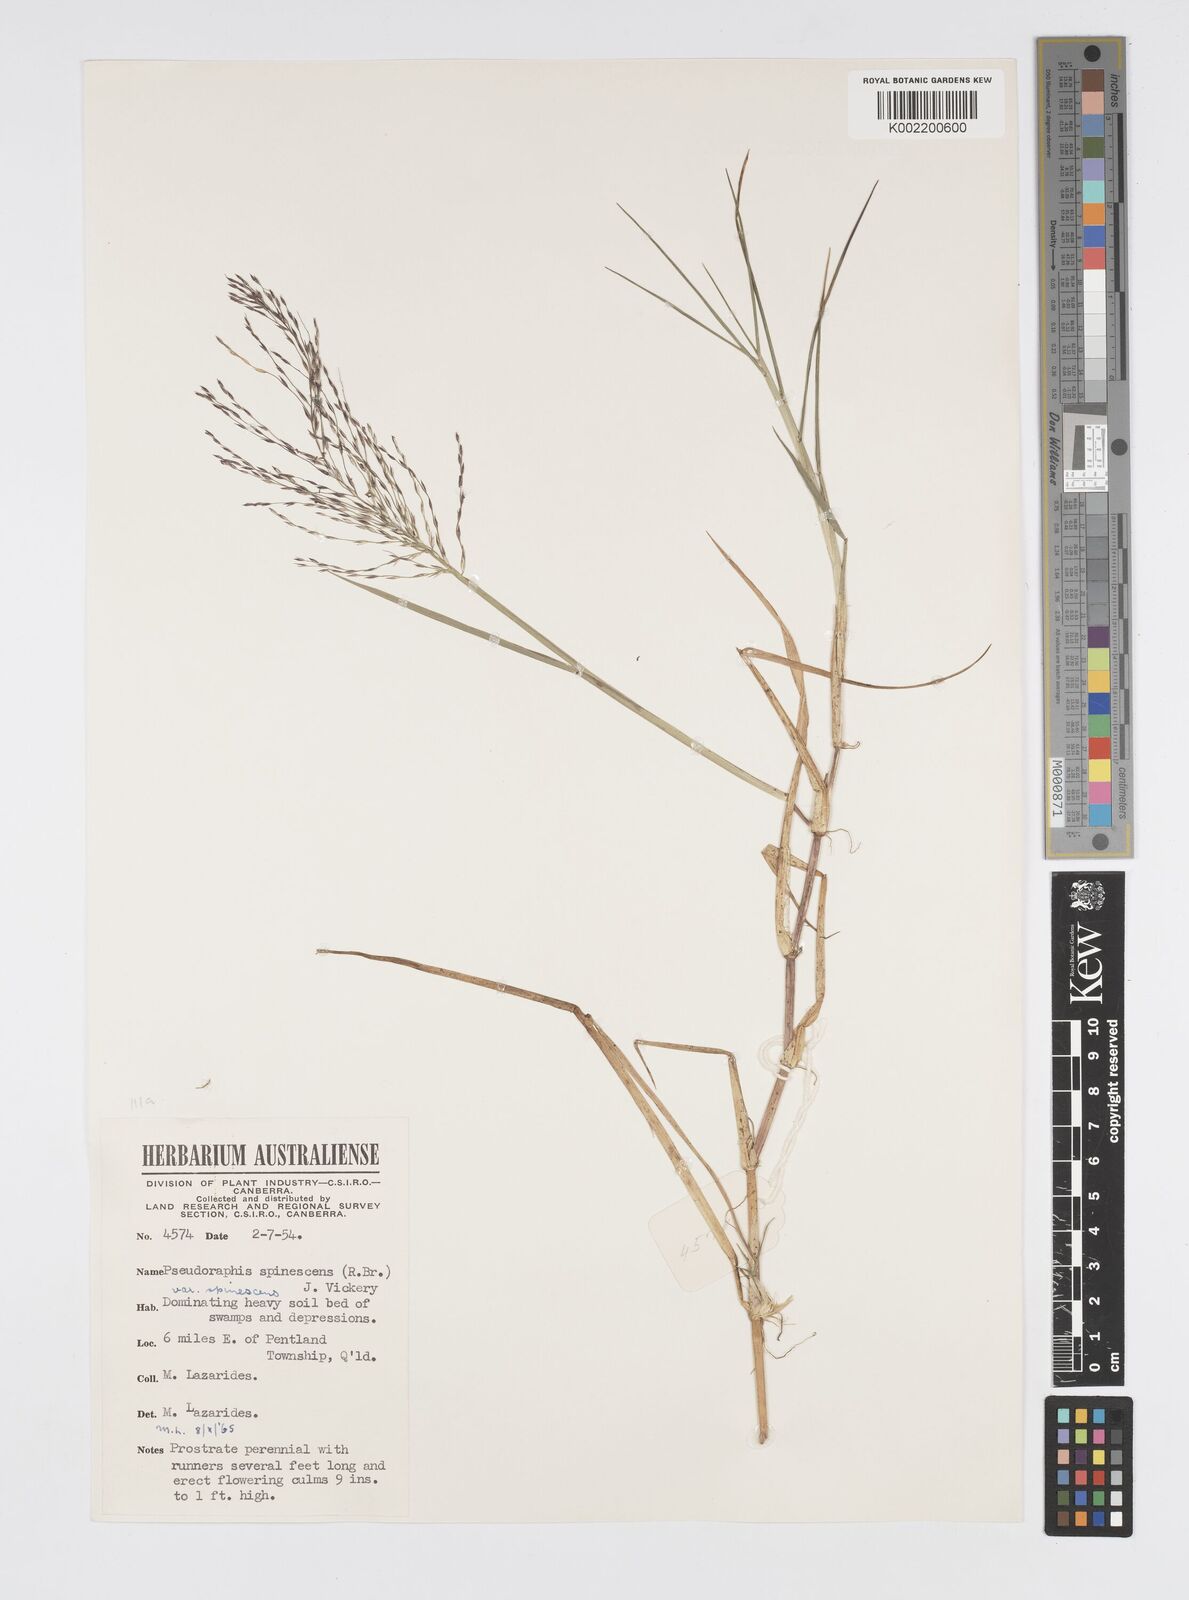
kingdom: Plantae
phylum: Tracheophyta
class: Liliopsida
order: Poales
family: Poaceae
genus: Pseudoraphis
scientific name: Pseudoraphis spinescens
